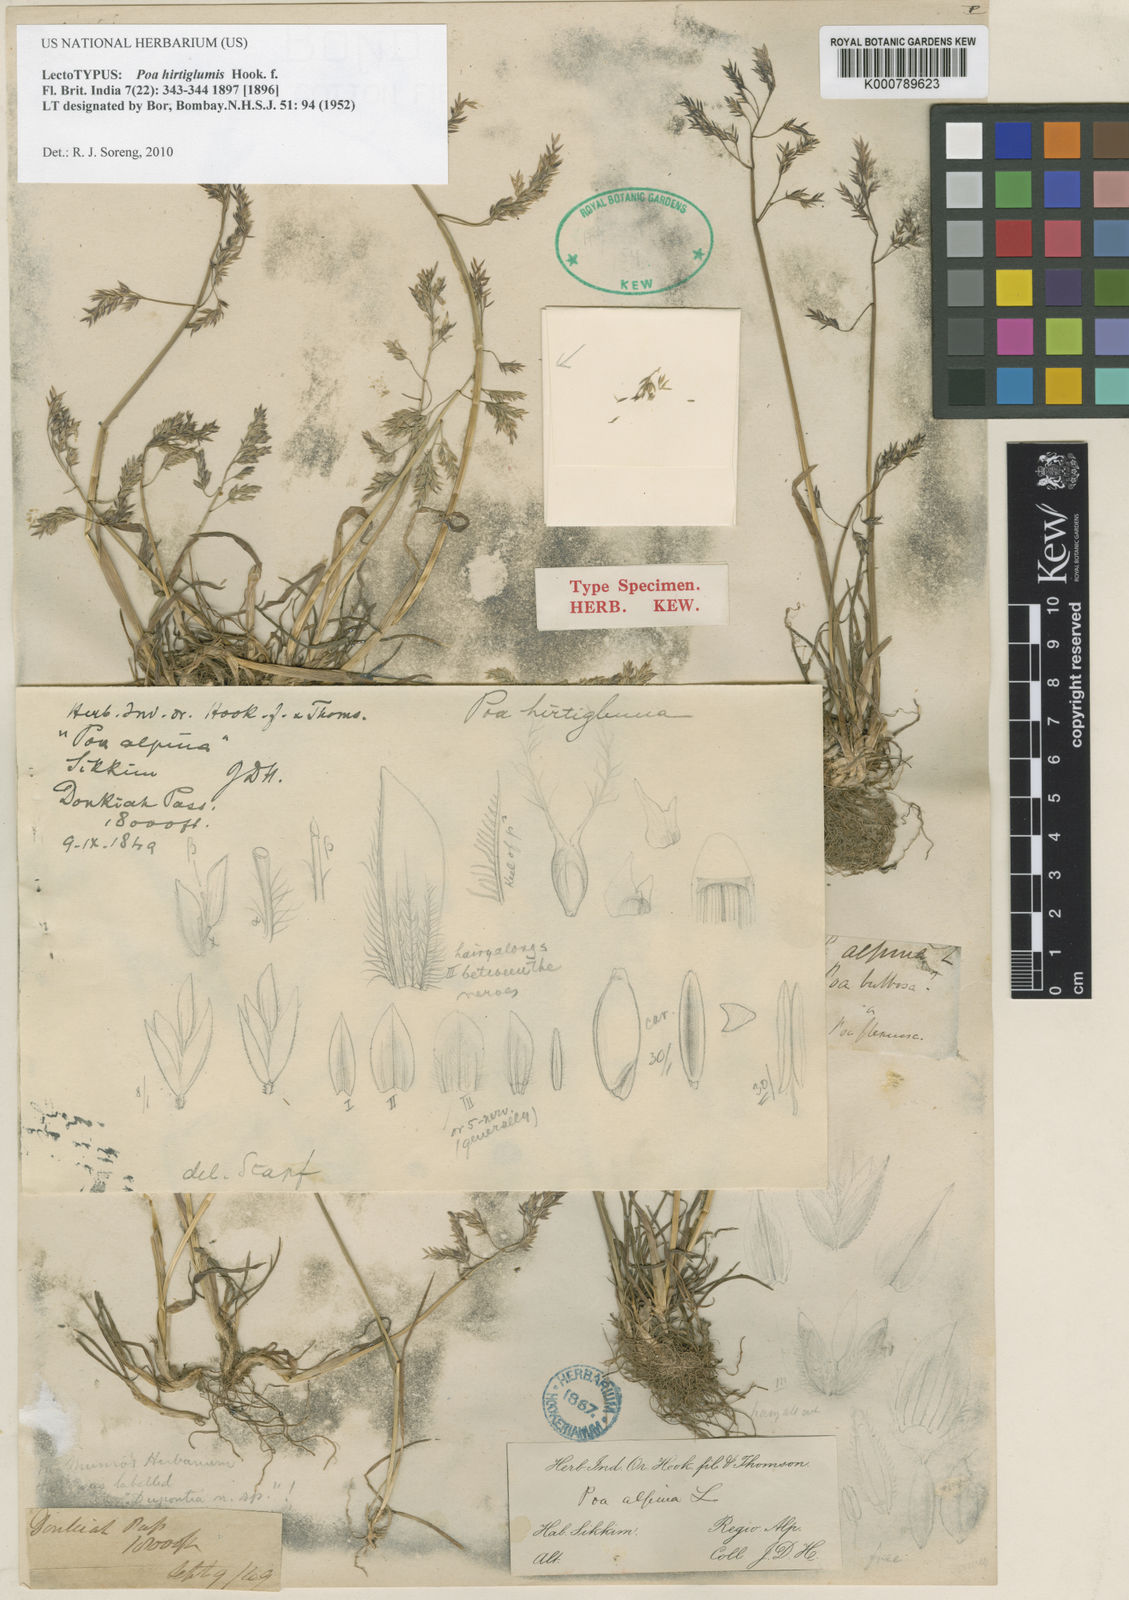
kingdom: Plantae
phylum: Tracheophyta
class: Liliopsida
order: Poales
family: Poaceae
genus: Poa
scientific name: Poa hirtiglumis
